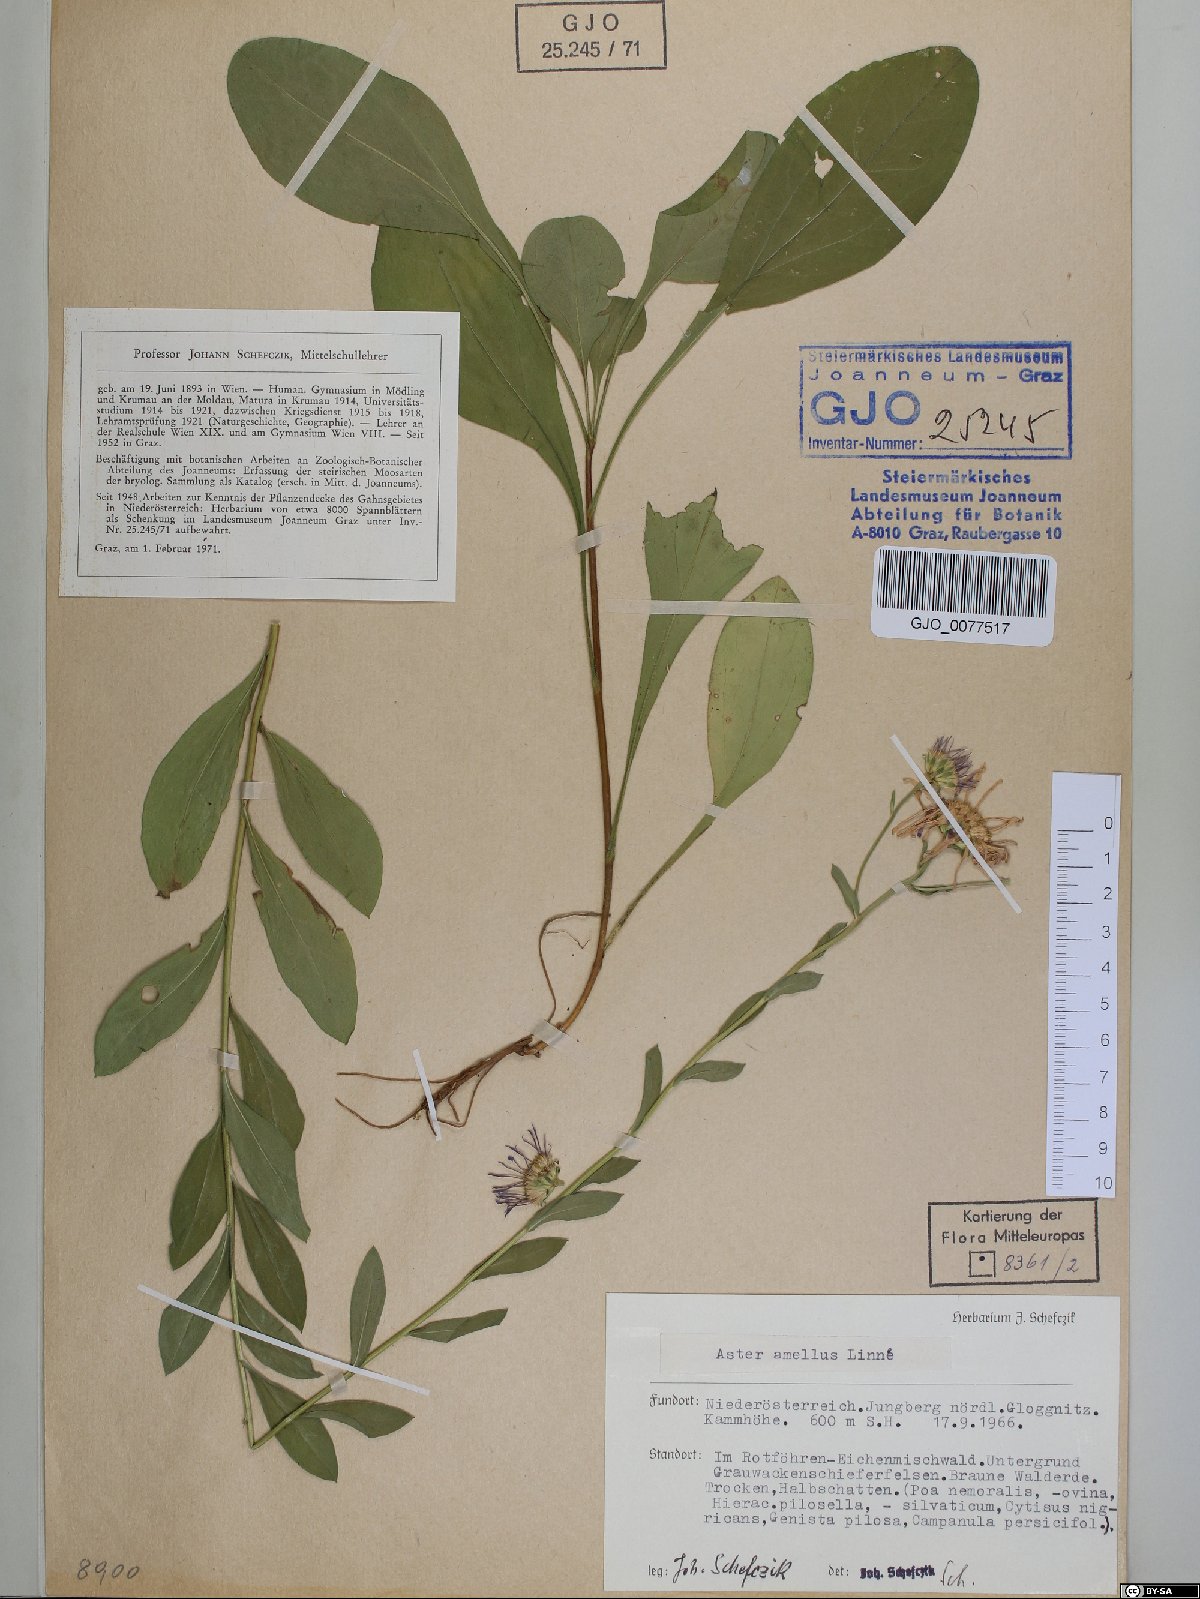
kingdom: Plantae
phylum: Tracheophyta
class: Magnoliopsida
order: Asterales
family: Asteraceae
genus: Aster
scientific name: Aster amellus
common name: European michaelmas daisy
